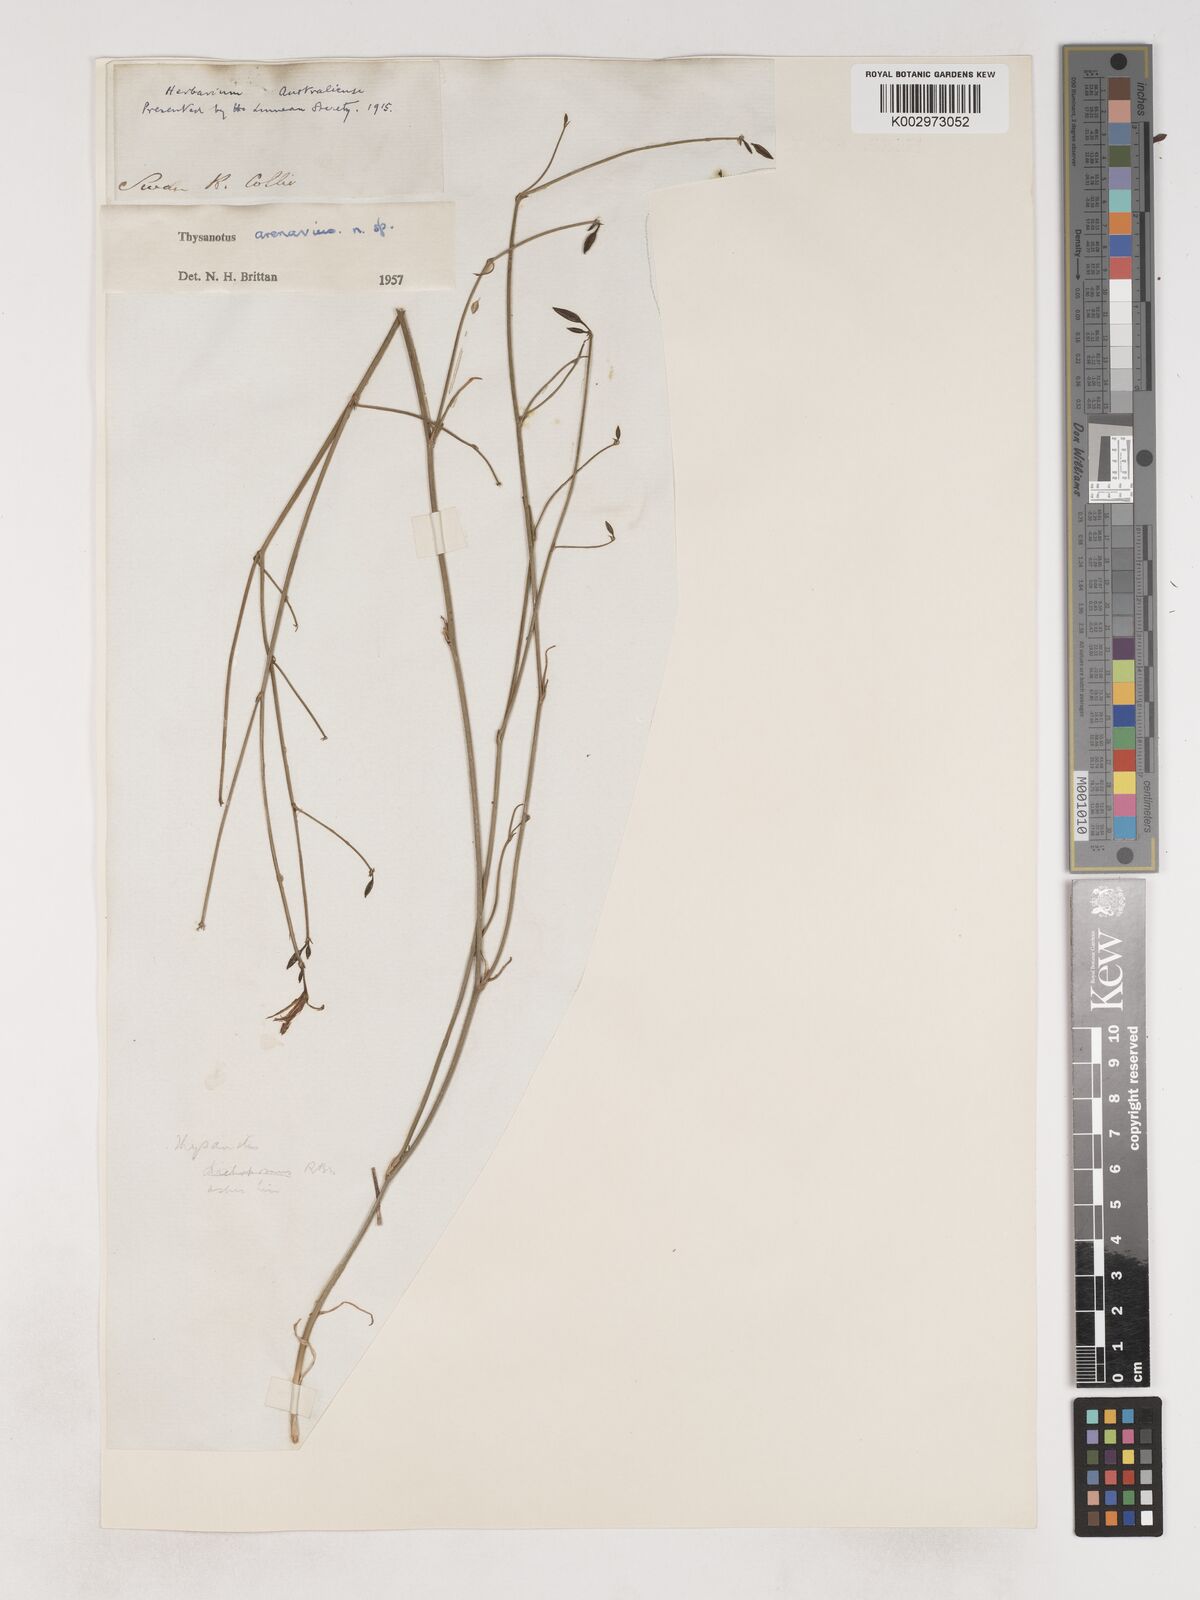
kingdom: Plantae
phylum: Tracheophyta
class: Liliopsida
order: Asparagales
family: Asparagaceae
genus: Thysanotus
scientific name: Thysanotus arenarius
